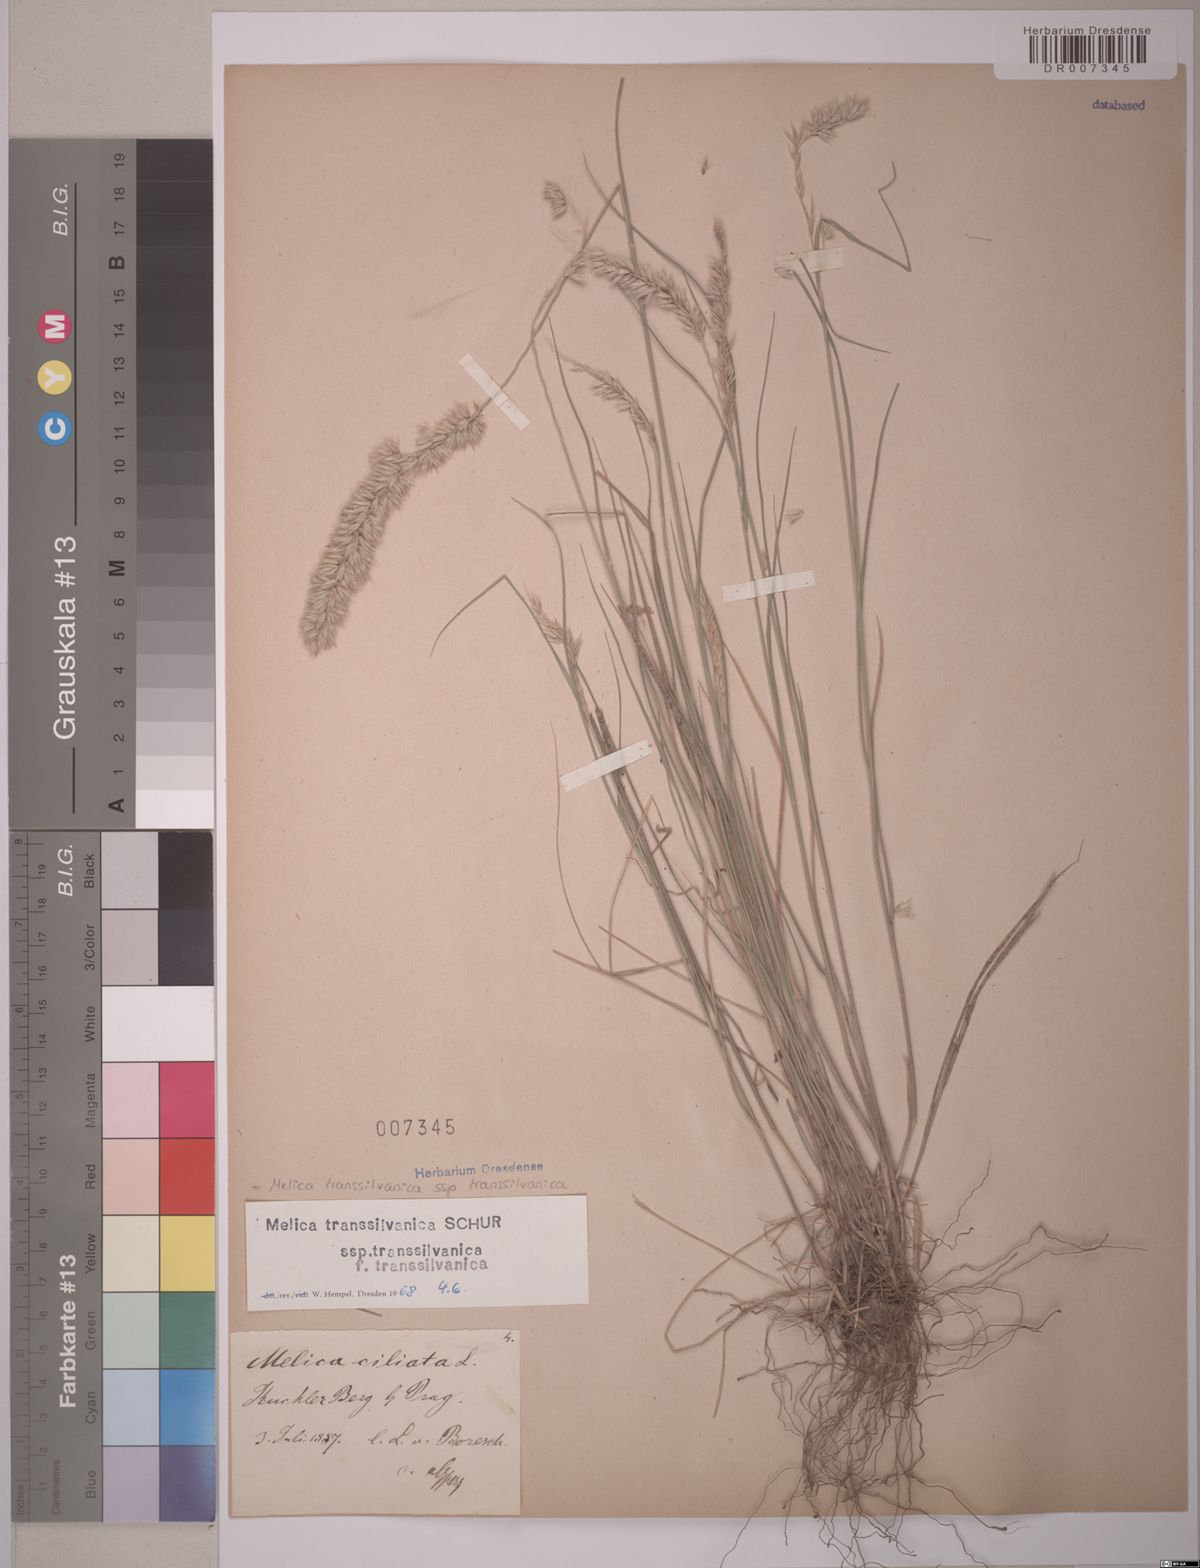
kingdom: Plantae
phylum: Tracheophyta
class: Liliopsida
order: Poales
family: Poaceae
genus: Melica
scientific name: Melica transsilvanica
